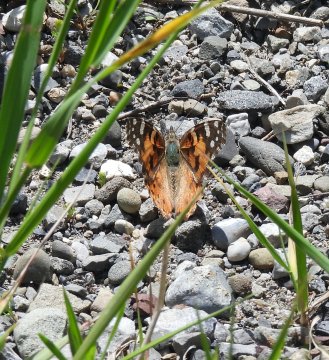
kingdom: Animalia
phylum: Arthropoda
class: Insecta
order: Lepidoptera
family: Nymphalidae
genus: Vanessa
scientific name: Vanessa cardui
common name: Painted Lady
